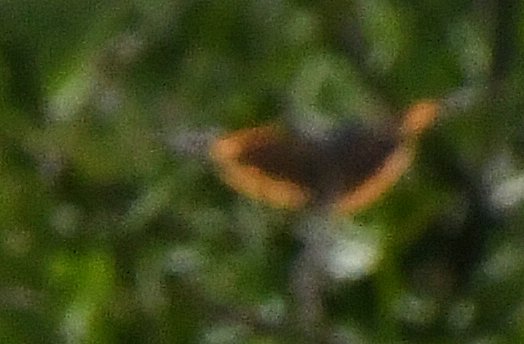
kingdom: Animalia
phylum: Arthropoda
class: Insecta
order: Lepidoptera
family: Nymphalidae
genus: Vanessa
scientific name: Vanessa atalanta
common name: Red Admiral
